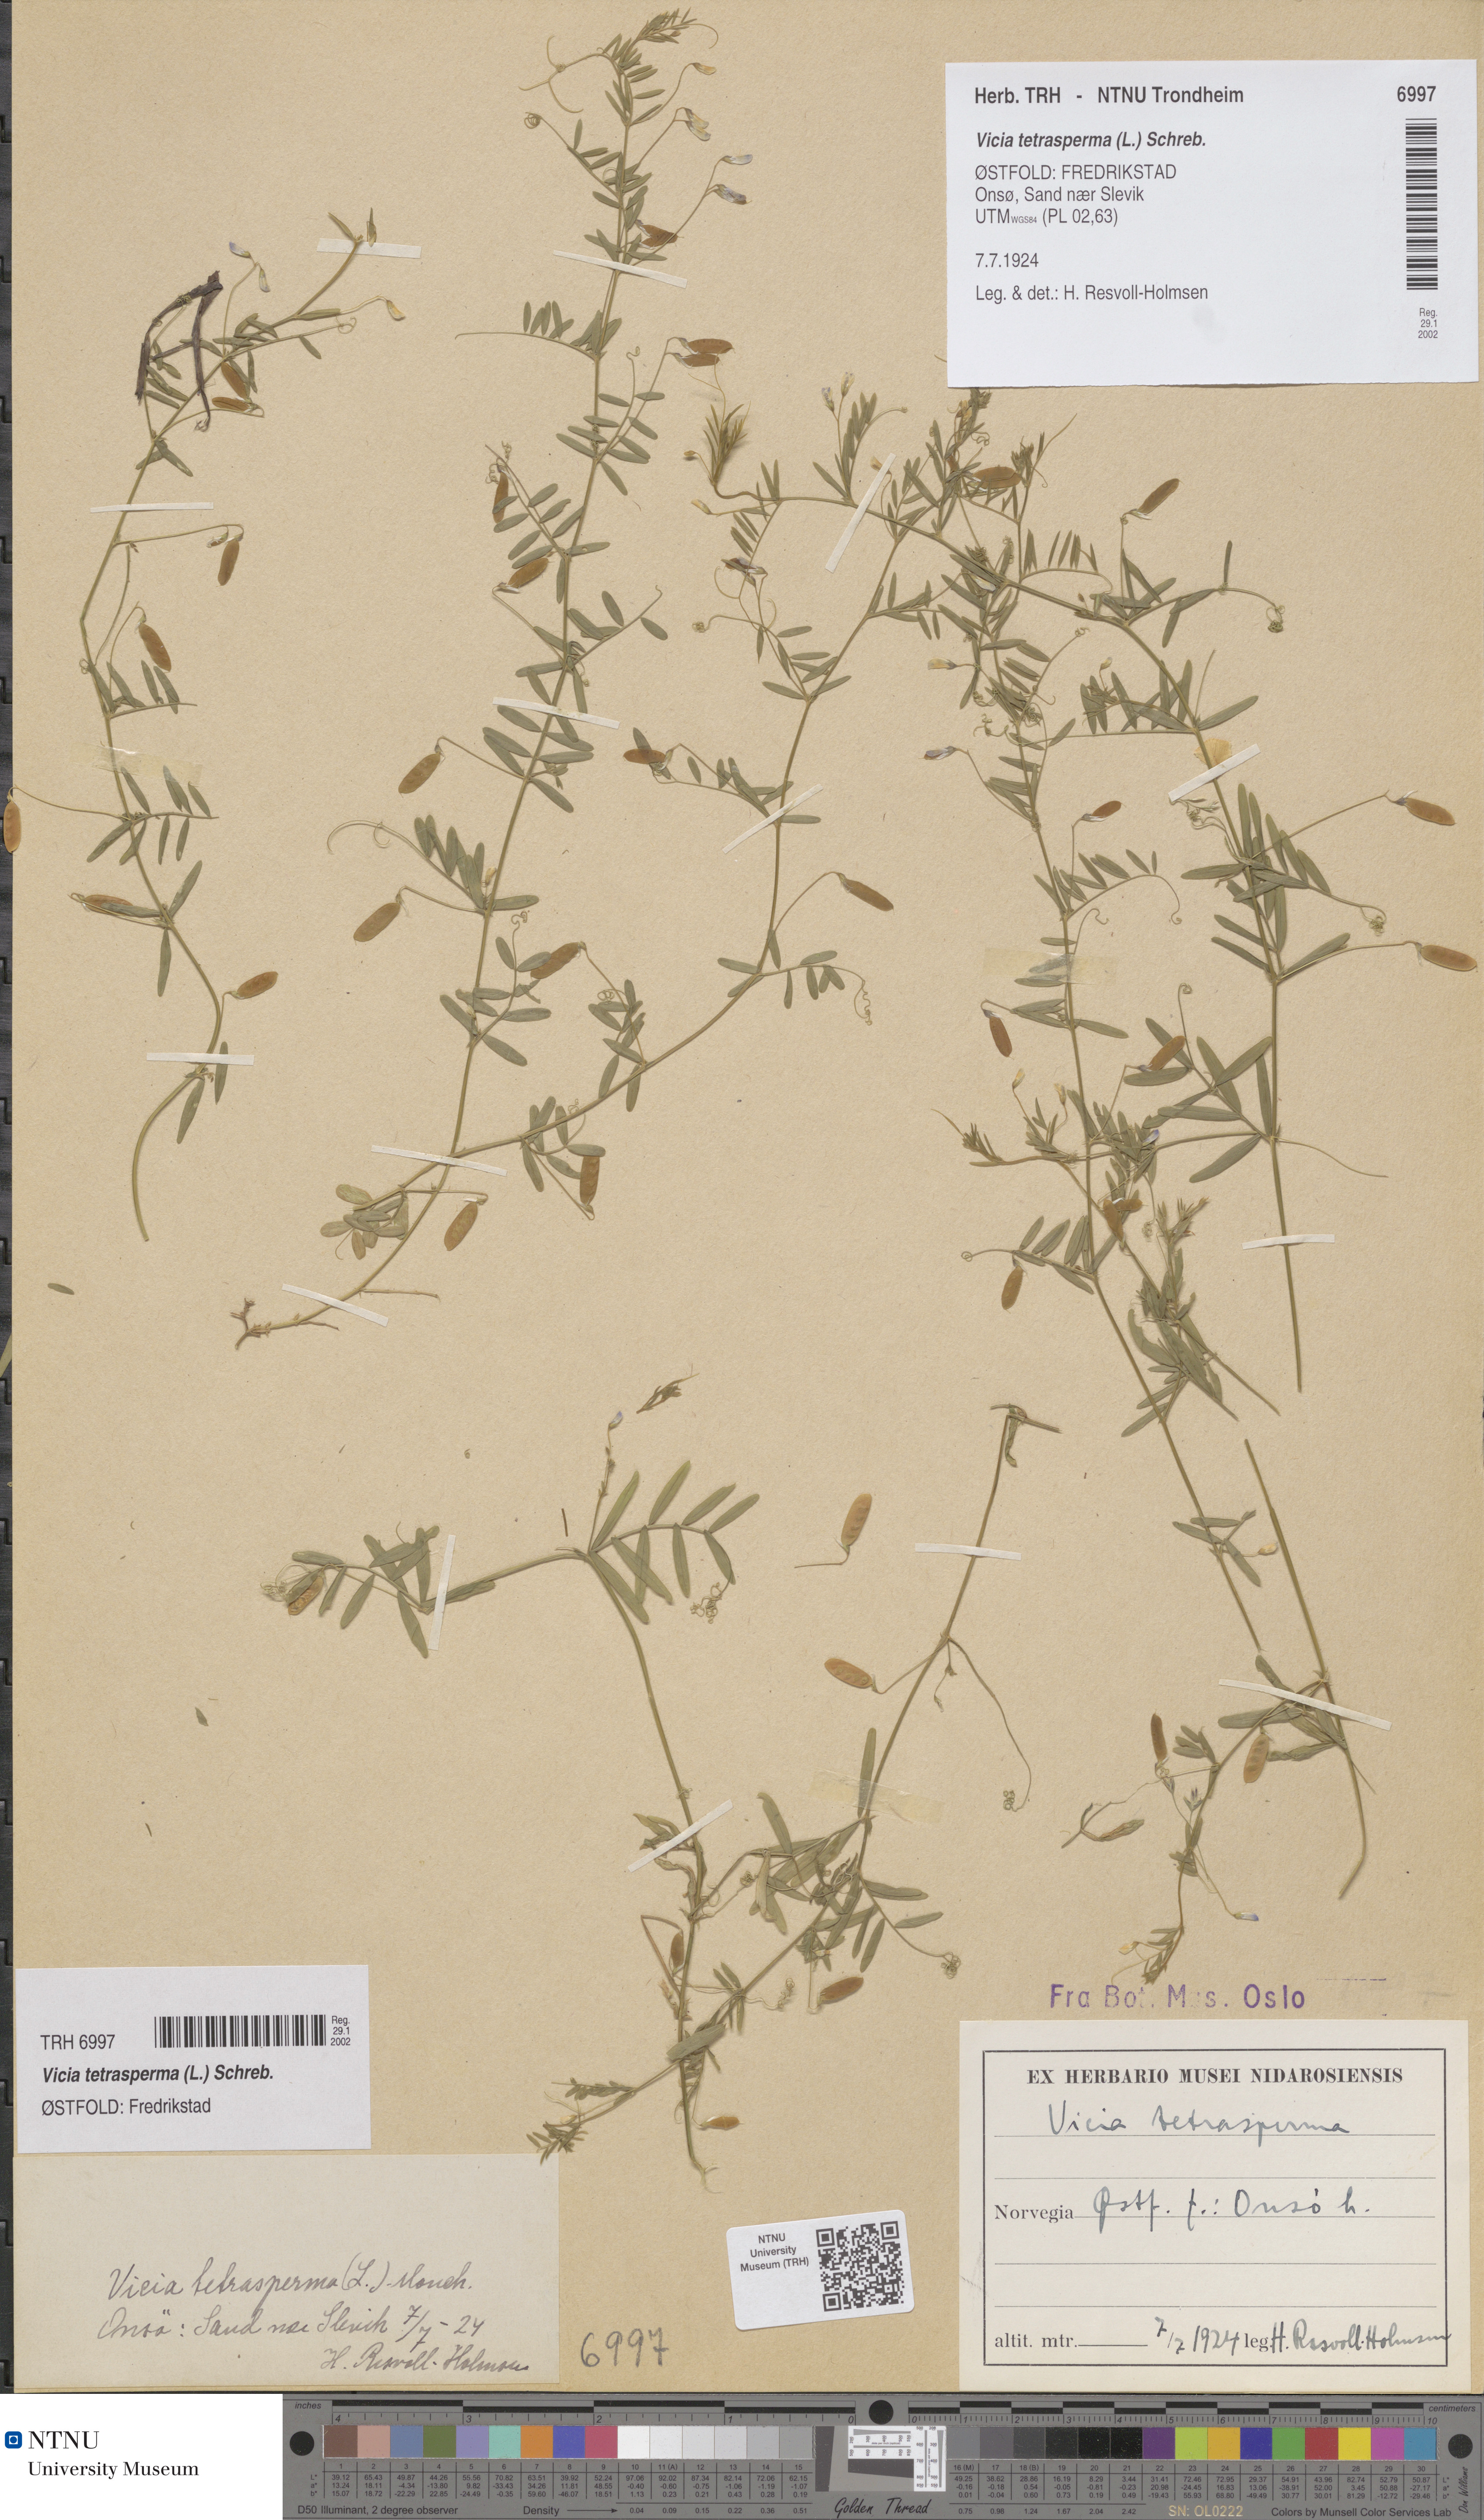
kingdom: Plantae
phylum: Tracheophyta
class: Magnoliopsida
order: Fabales
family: Fabaceae
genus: Vicia
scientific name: Vicia tetrasperma
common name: Smooth tare
